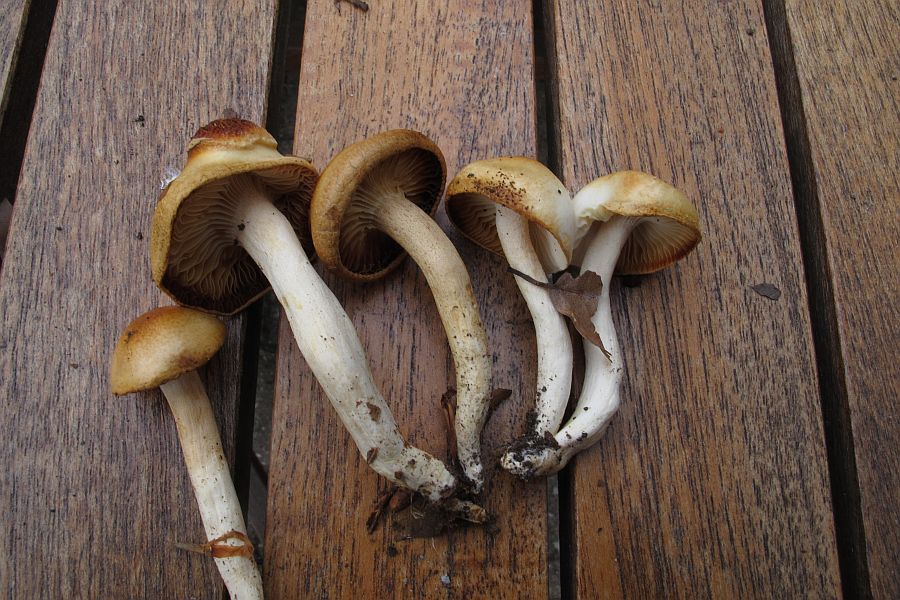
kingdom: Fungi
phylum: Basidiomycota
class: Agaricomycetes
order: Agaricales
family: Hygrophoraceae
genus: Hygrophorus
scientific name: Hygrophorus discoxanthus
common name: ildelugtende sneglehat
